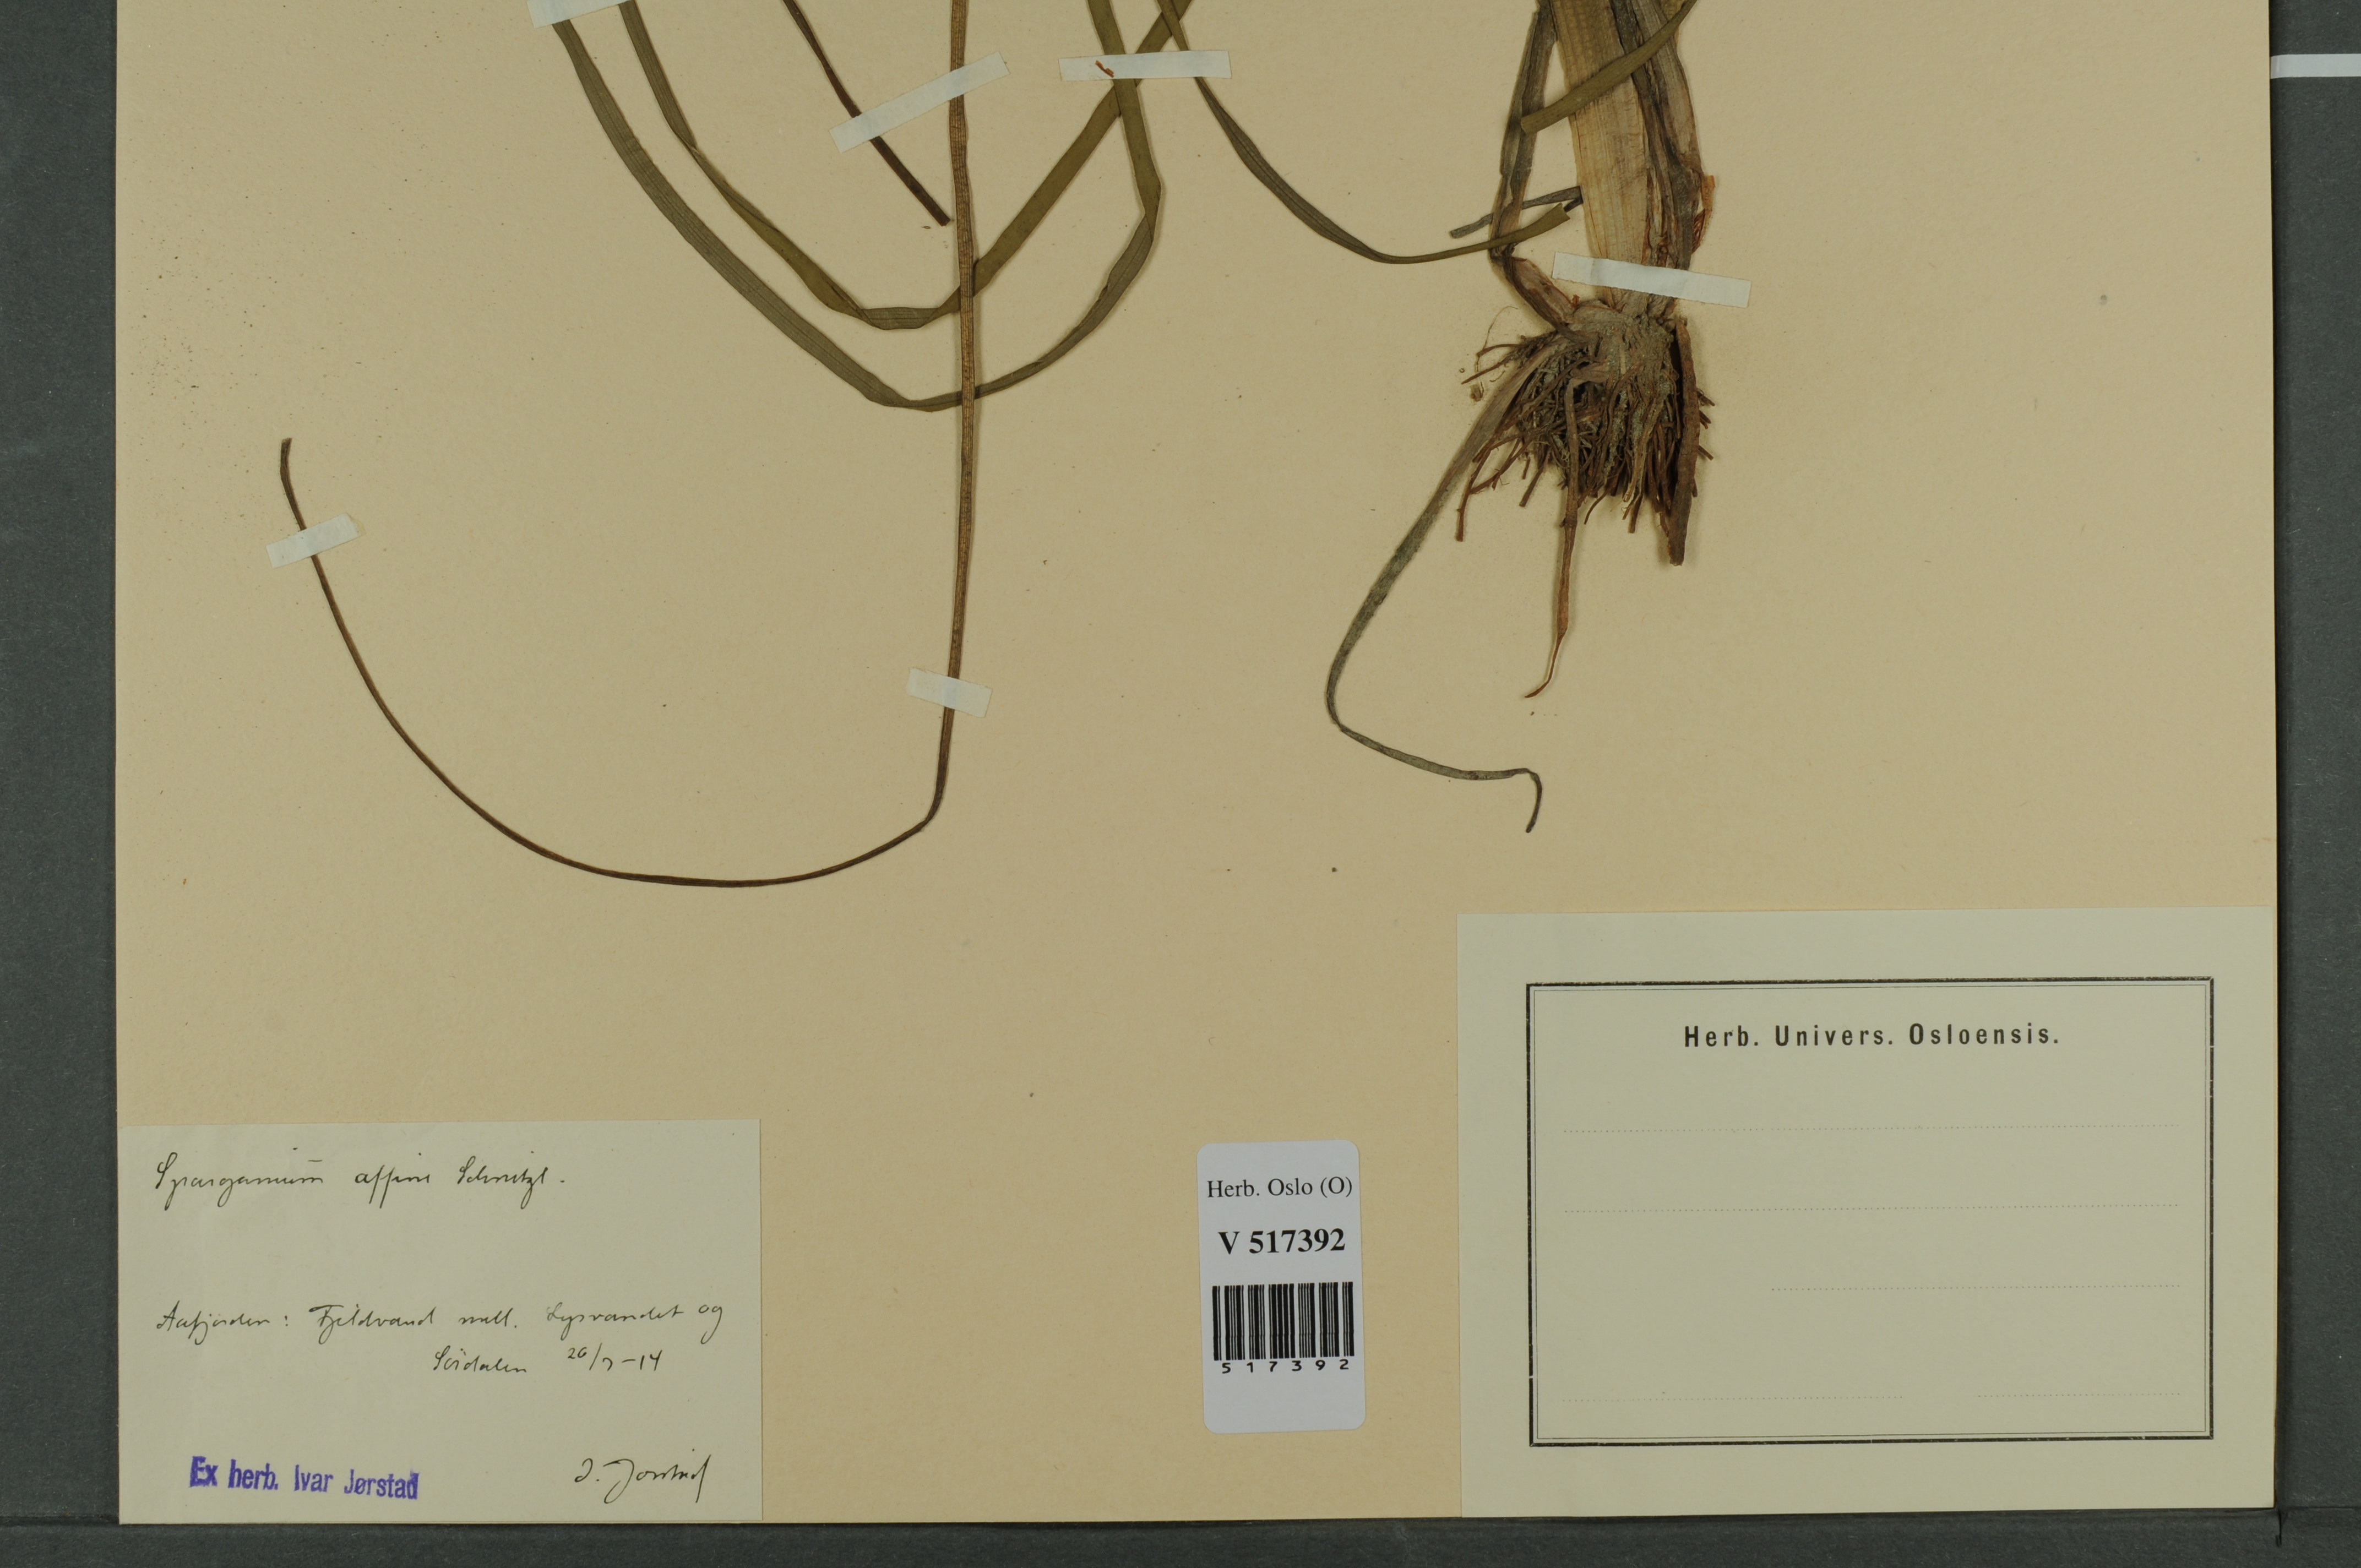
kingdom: Plantae
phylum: Tracheophyta
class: Liliopsida
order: Poales
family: Typhaceae
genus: Sparganium
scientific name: Sparganium angustifolium
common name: Floating bur-reed
